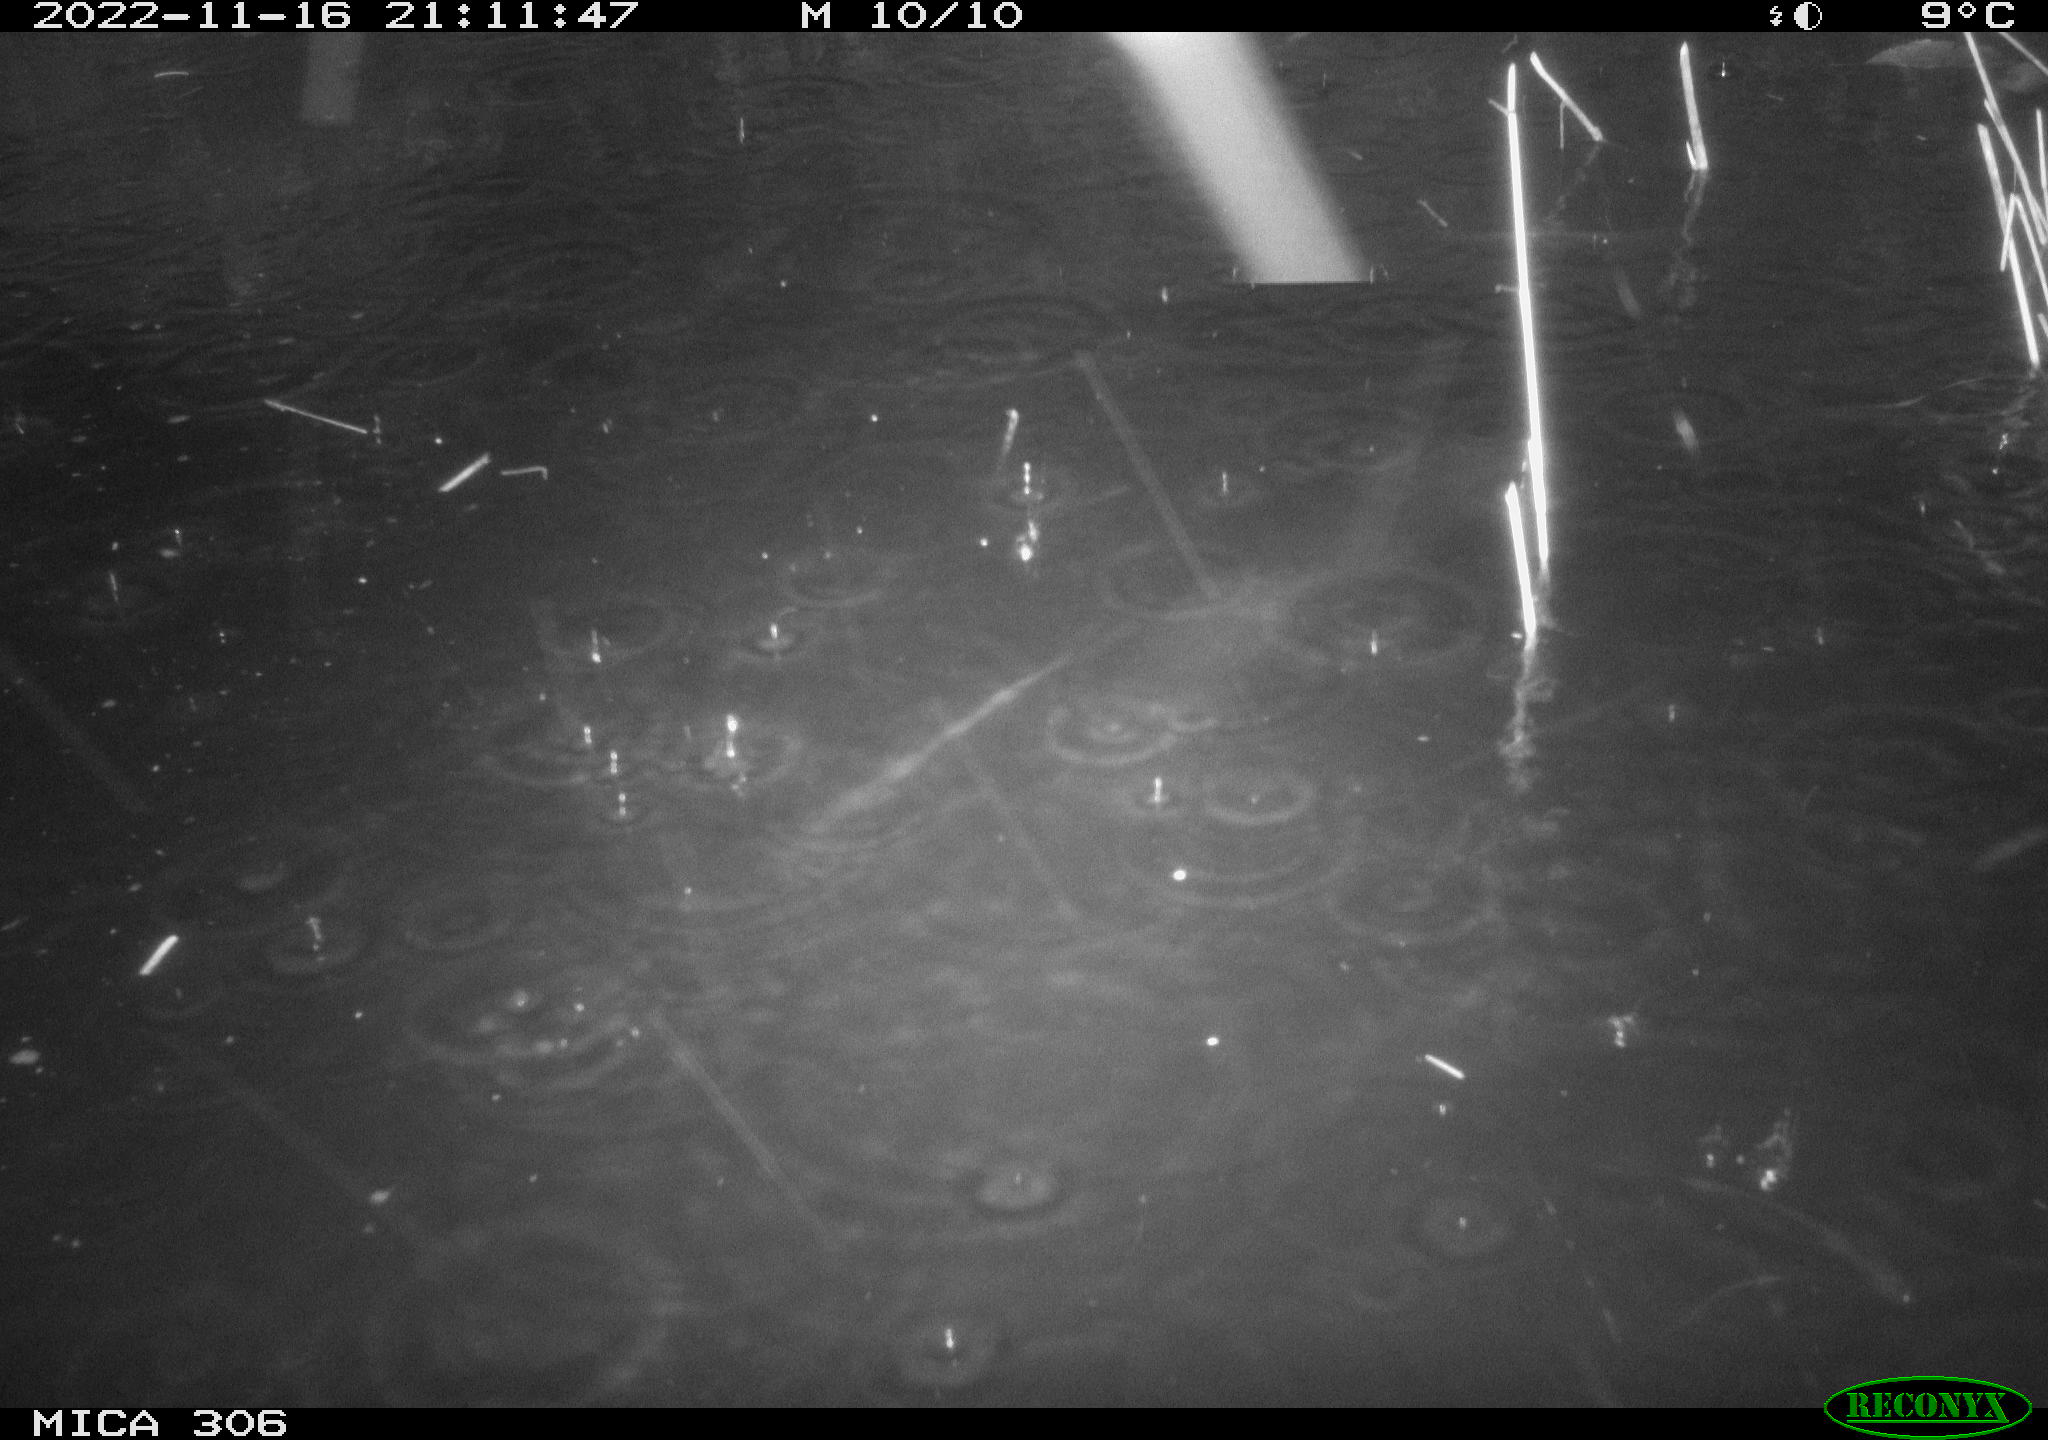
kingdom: Animalia
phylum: Chordata
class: Mammalia
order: Rodentia
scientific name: Rodentia
